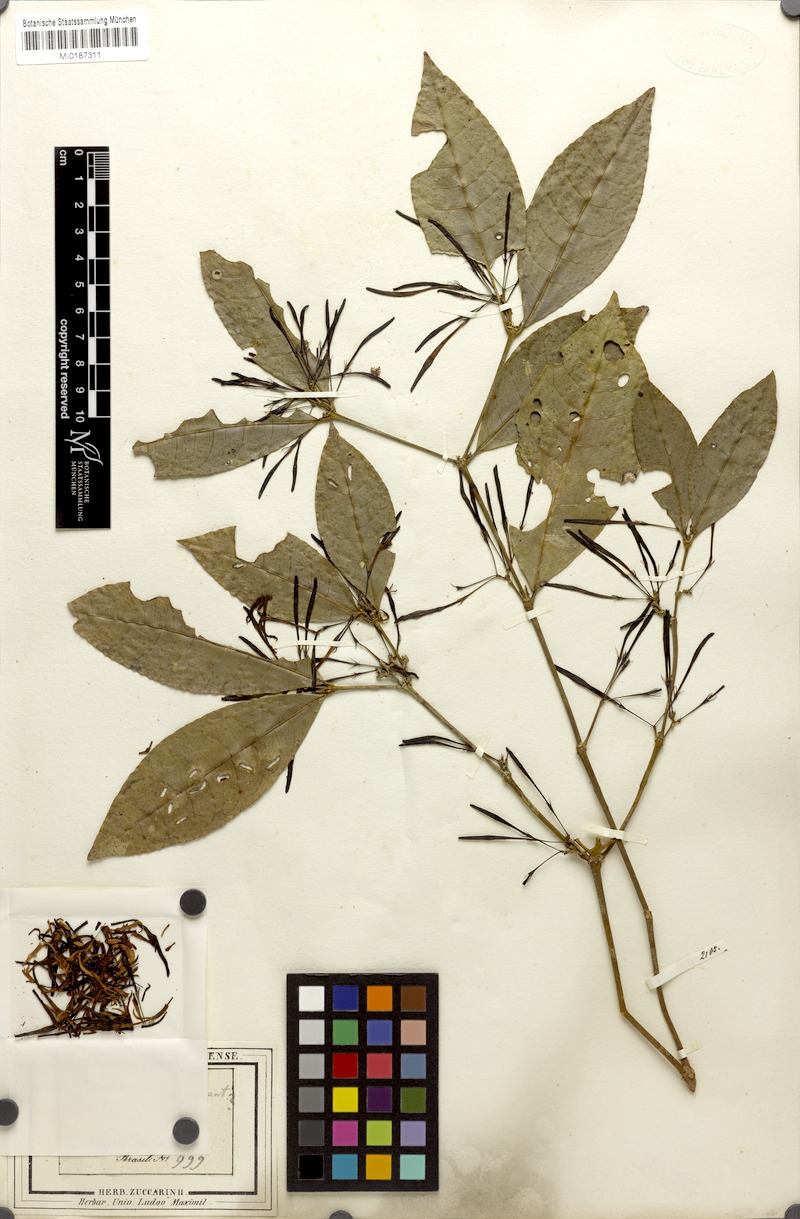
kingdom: Plantae
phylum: Tracheophyta
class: Magnoliopsida
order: Gentianales
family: Rubiaceae
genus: Faramea
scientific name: Faramea coerulea
